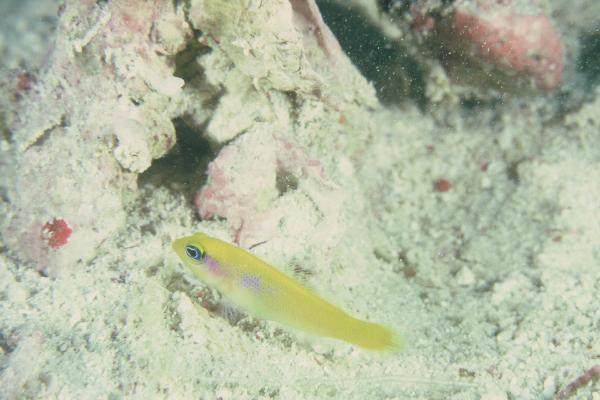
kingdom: Animalia
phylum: Chordata
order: Perciformes
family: Pseudochromidae
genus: Pseudochromis
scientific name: Pseudochromis flavivertex
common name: Sunrise dottyback
